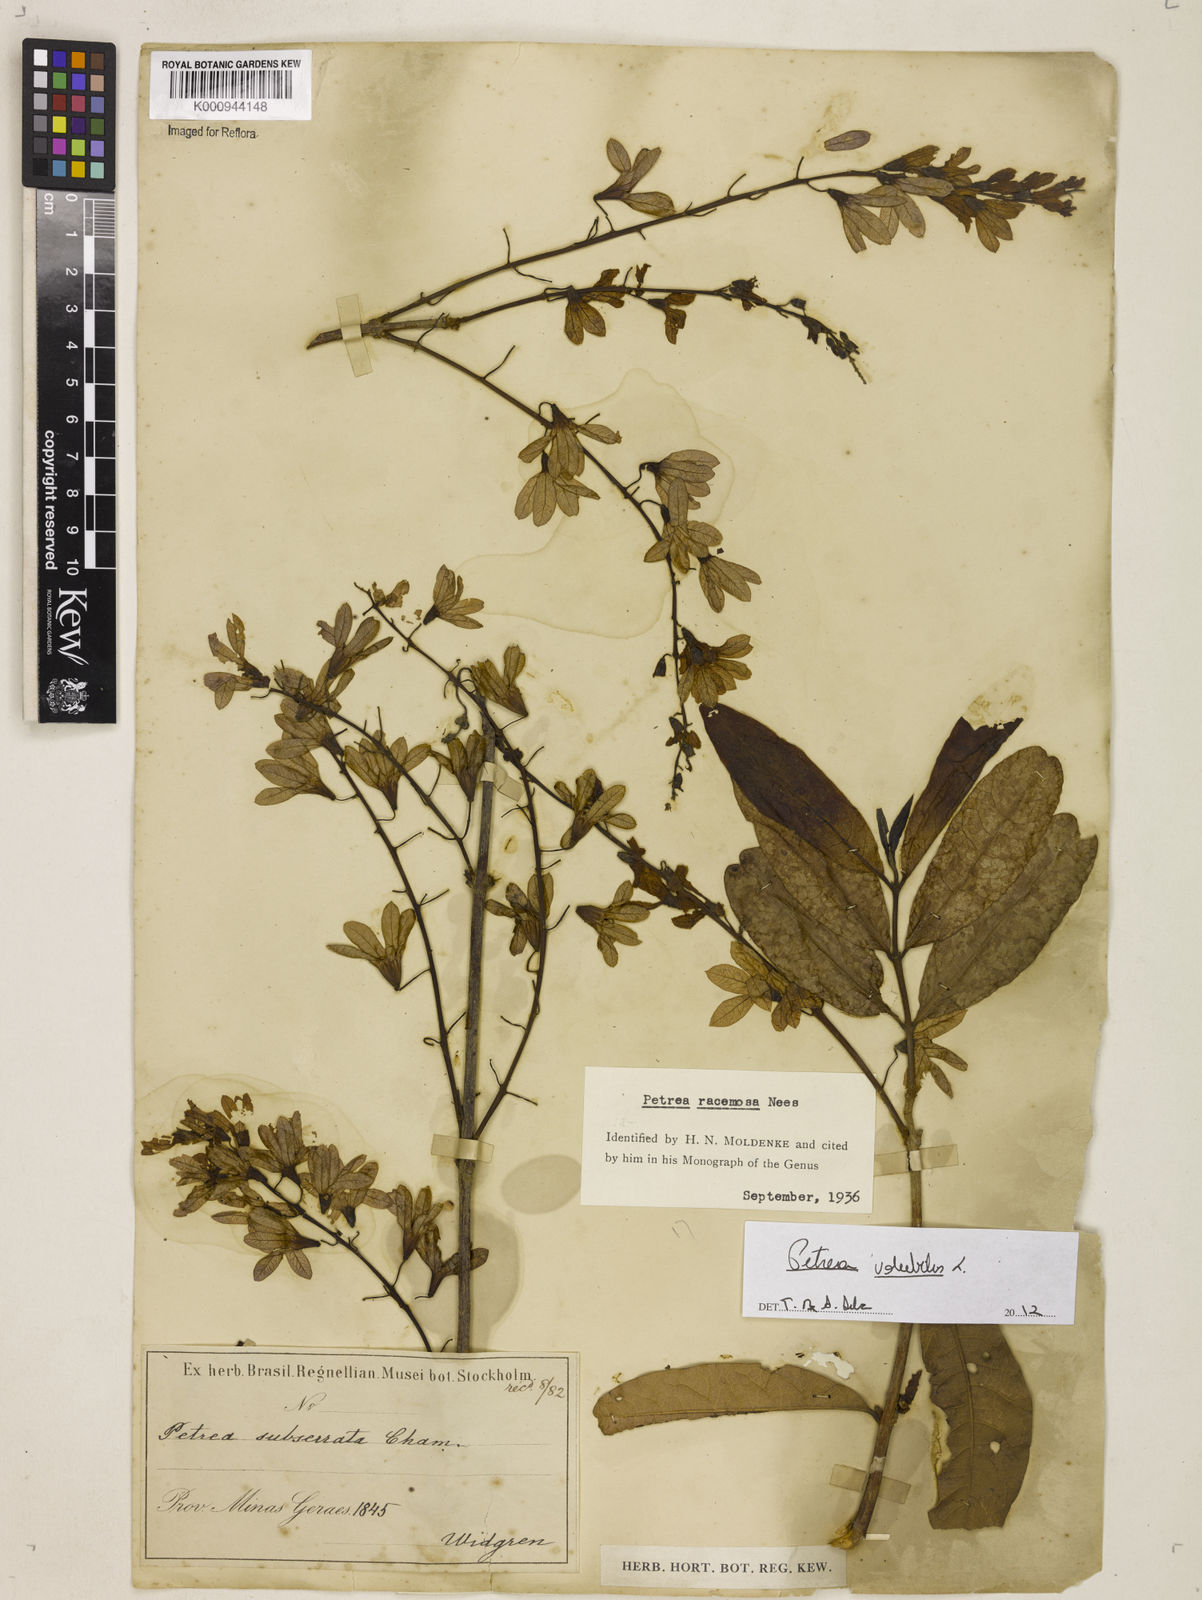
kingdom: Plantae
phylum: Tracheophyta
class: Magnoliopsida
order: Lamiales
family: Verbenaceae
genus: Petrea
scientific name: Petrea volubilis
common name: Queen's-wreath
